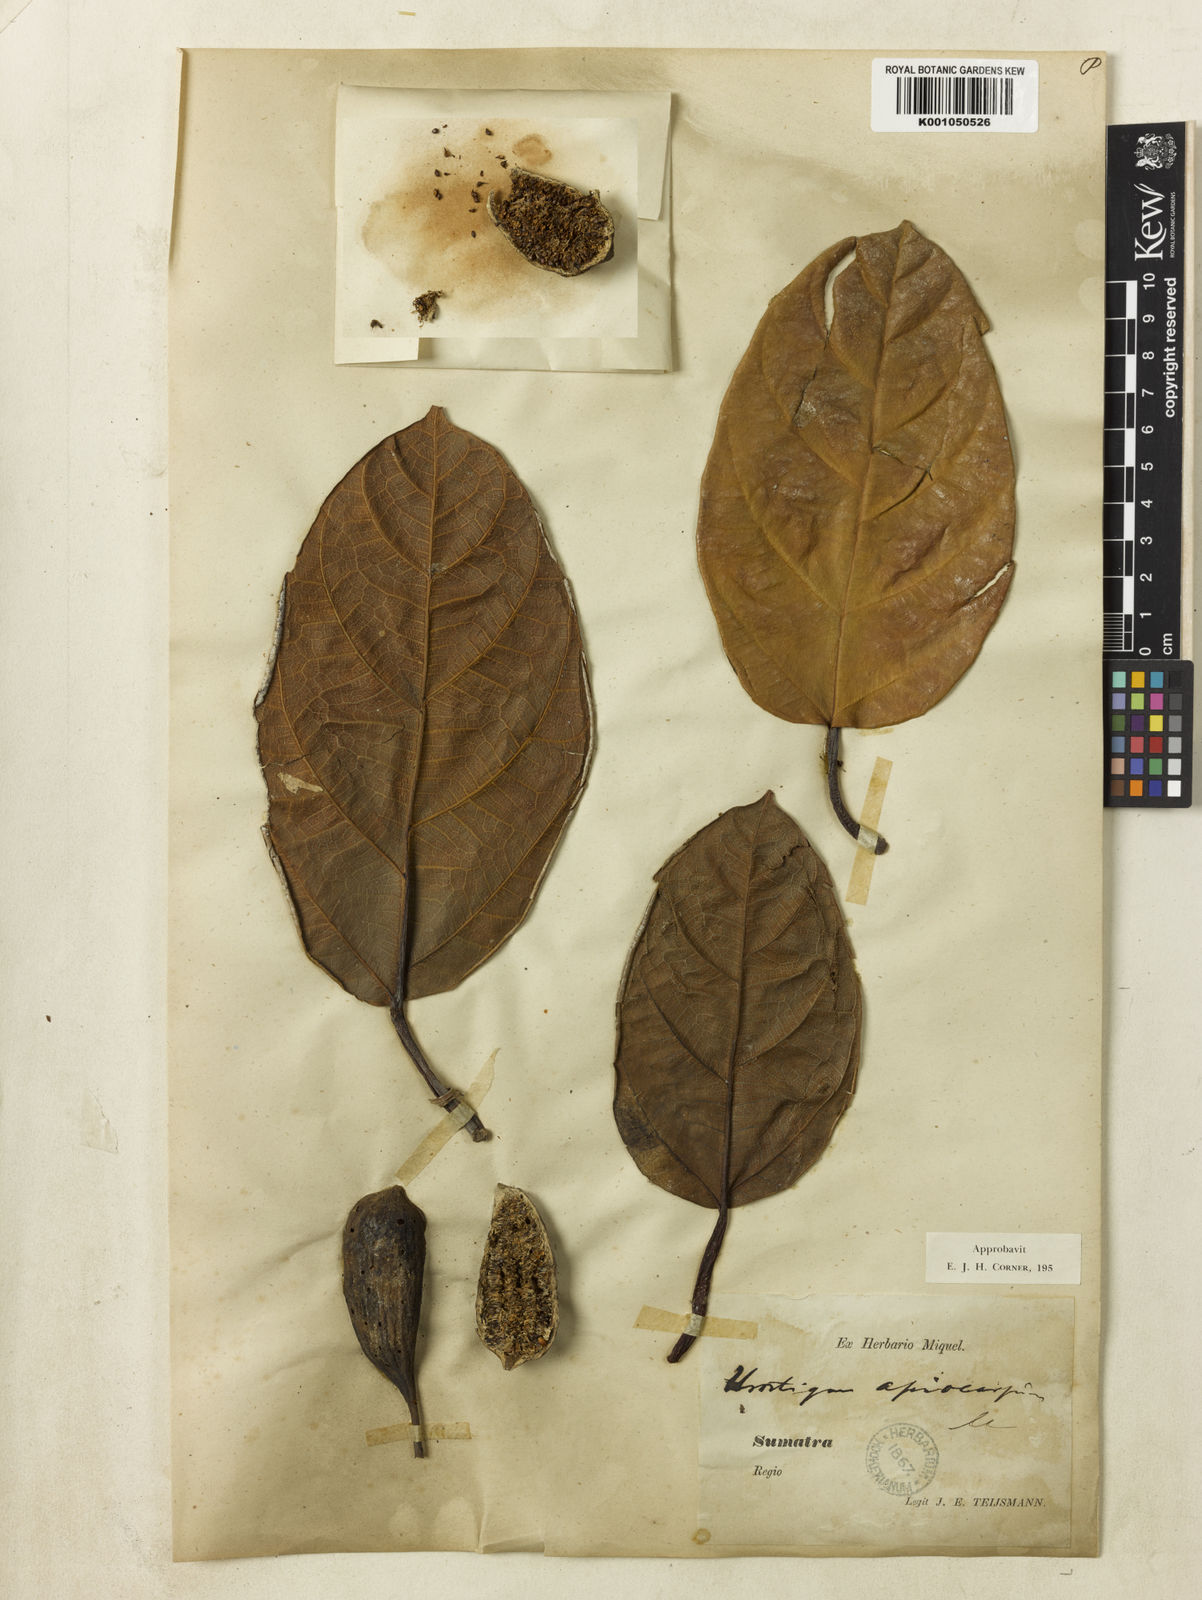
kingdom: Plantae
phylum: Tracheophyta
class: Magnoliopsida
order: Rosales
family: Moraceae
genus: Ficus
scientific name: Ficus apiocarpa
